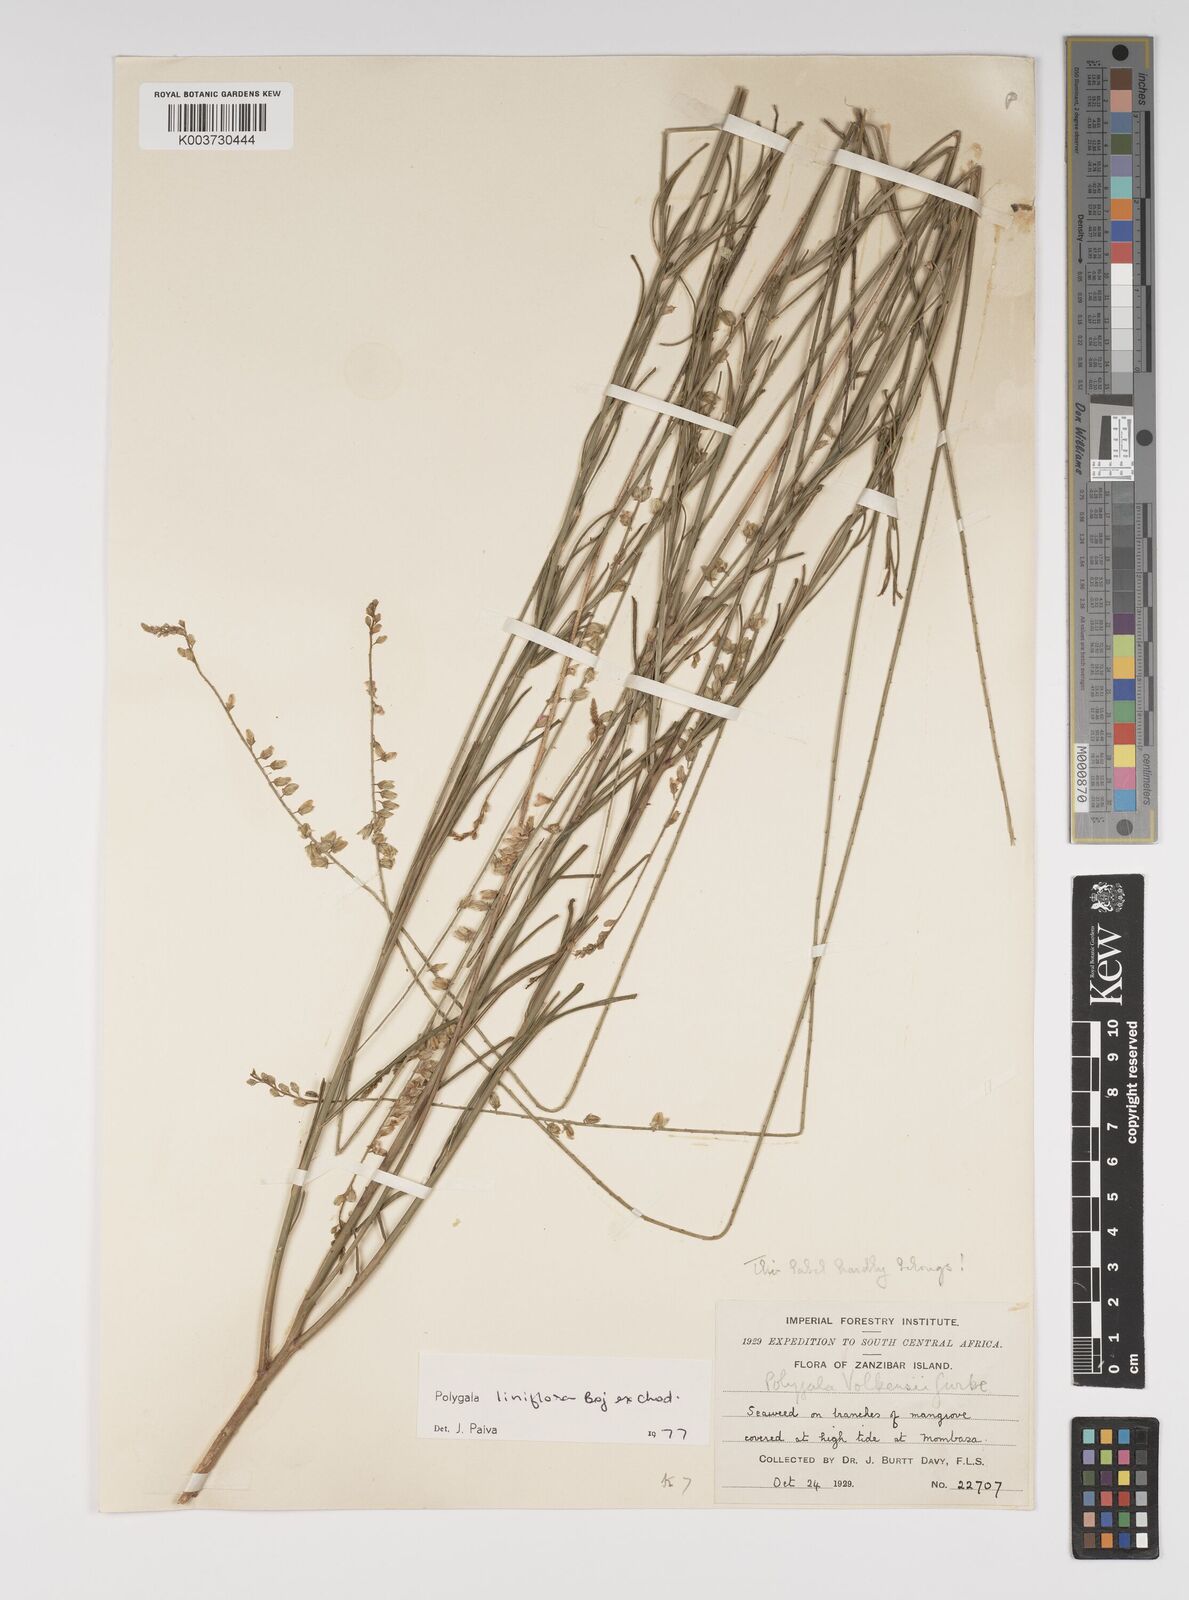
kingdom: Plantae
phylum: Tracheophyta
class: Magnoliopsida
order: Fabales
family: Polygalaceae
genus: Polygala
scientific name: Polygala conosperma
